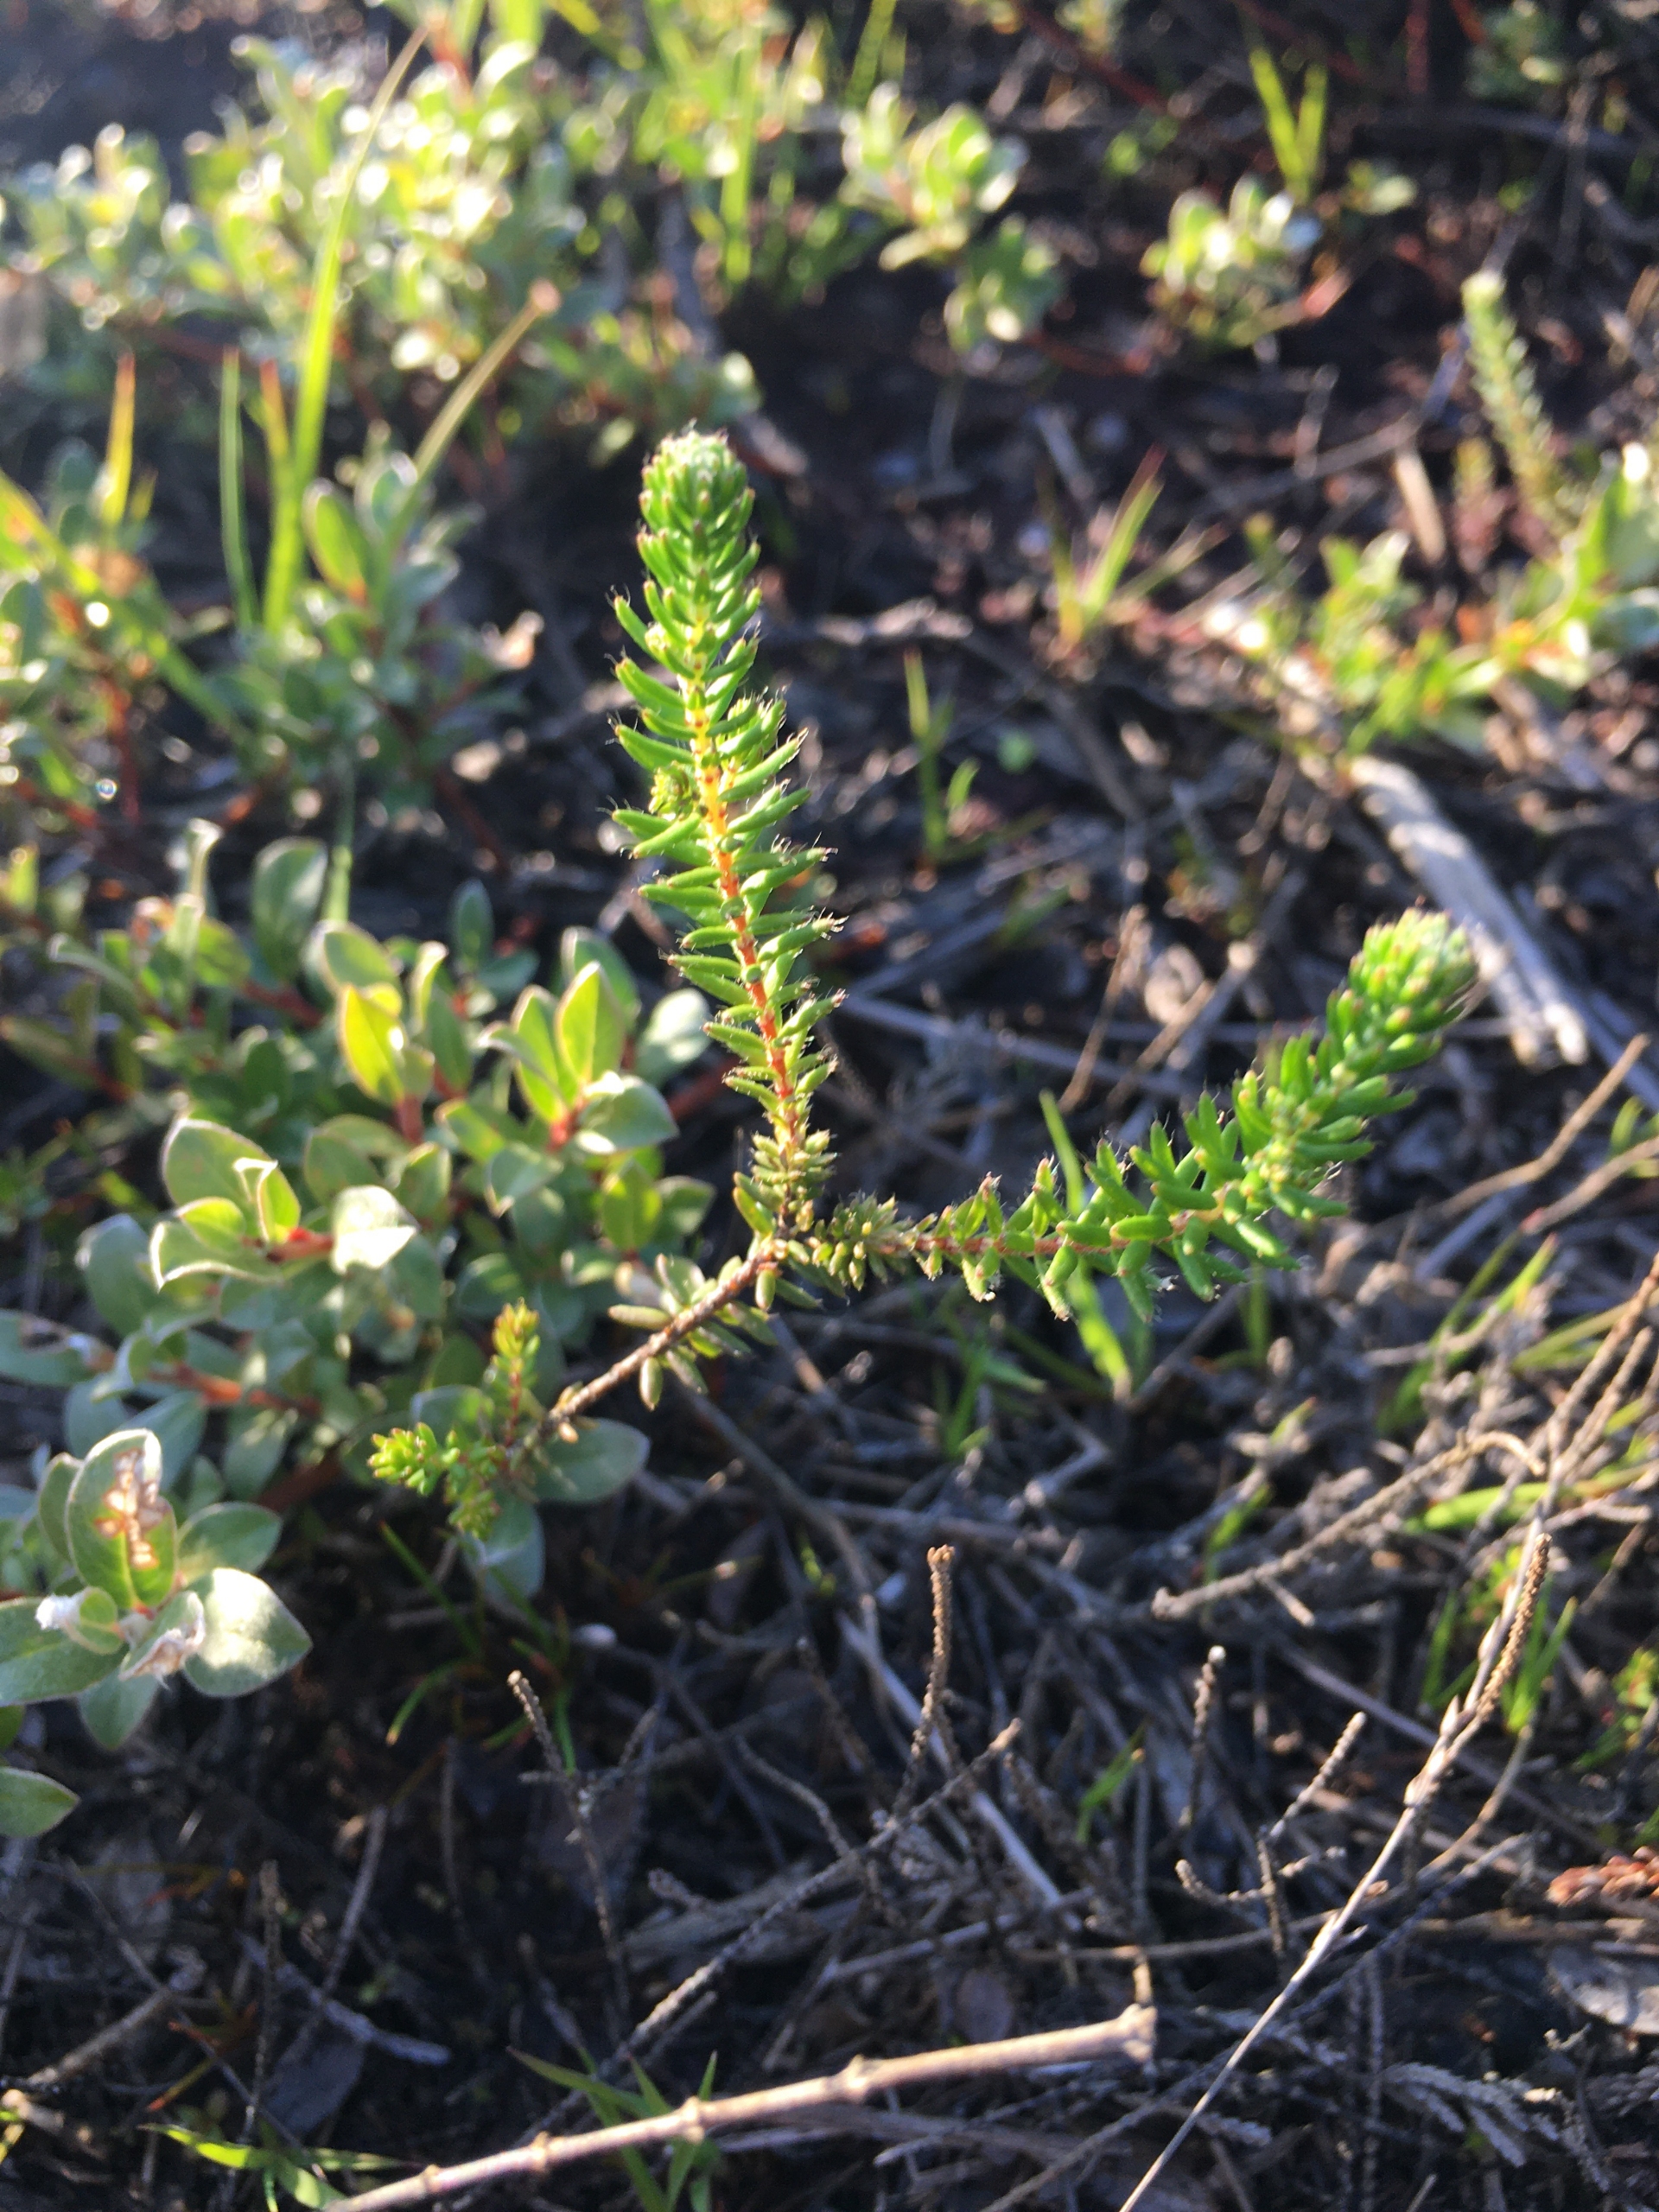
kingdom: Plantae
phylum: Tracheophyta
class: Magnoliopsida
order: Ericales
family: Ericaceae
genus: Empetrum
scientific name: Empetrum nigrum
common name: Revling
